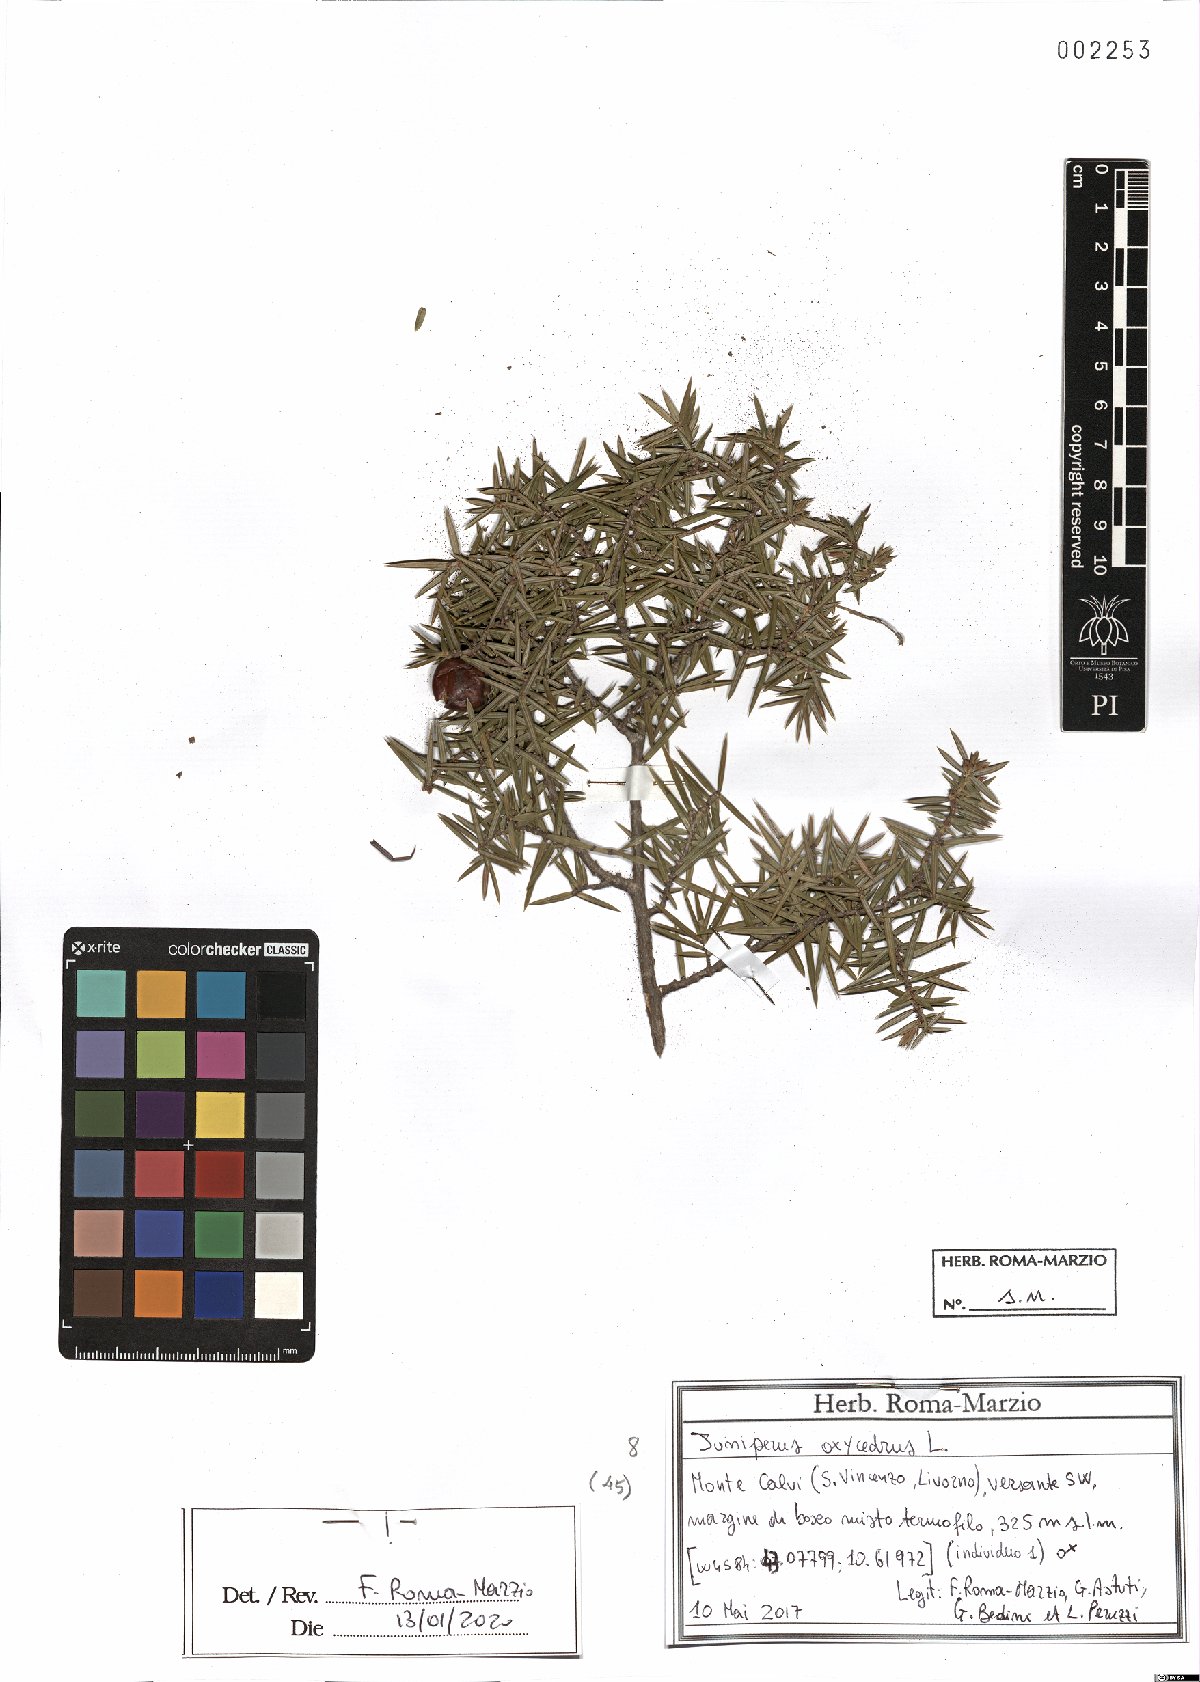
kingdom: Plantae
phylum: Tracheophyta
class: Pinopsida
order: Pinales
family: Cupressaceae
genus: Juniperus
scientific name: Juniperus oxycedrus
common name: Prickly juniper
